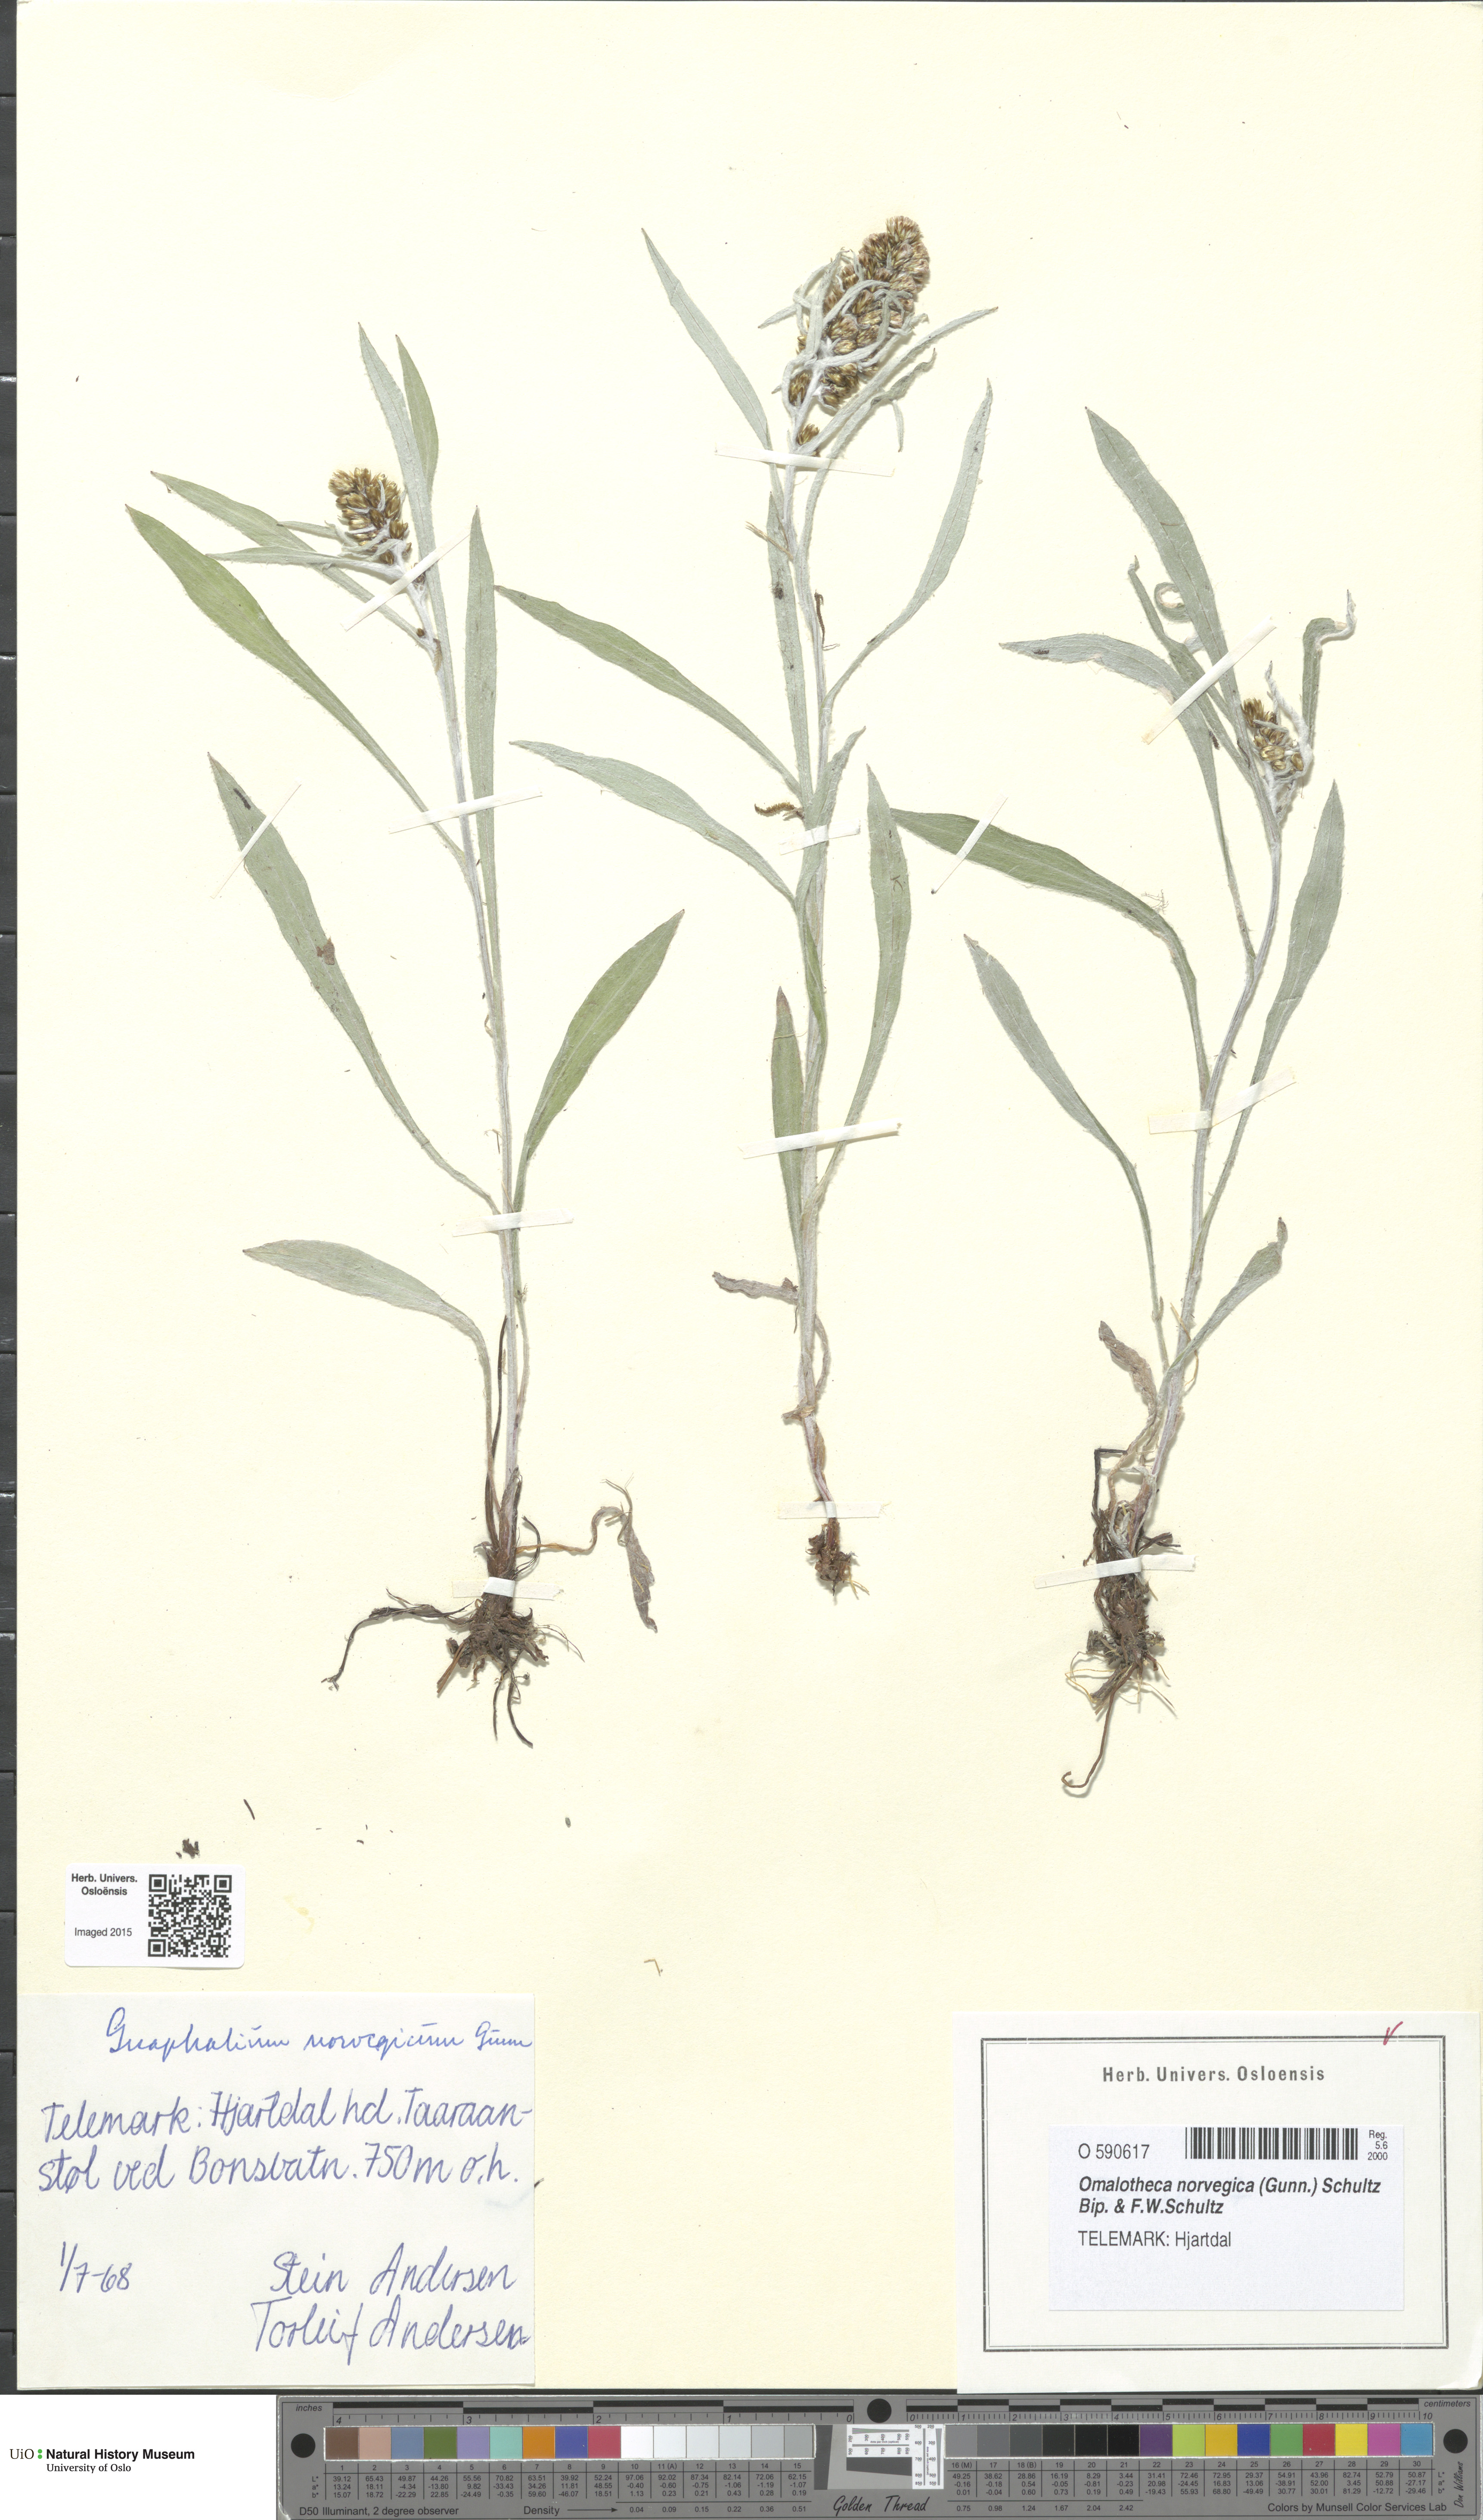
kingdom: Plantae
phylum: Tracheophyta
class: Magnoliopsida
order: Asterales
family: Asteraceae
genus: Omalotheca
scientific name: Omalotheca norvegica
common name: Norwegian arctic-cudweed
